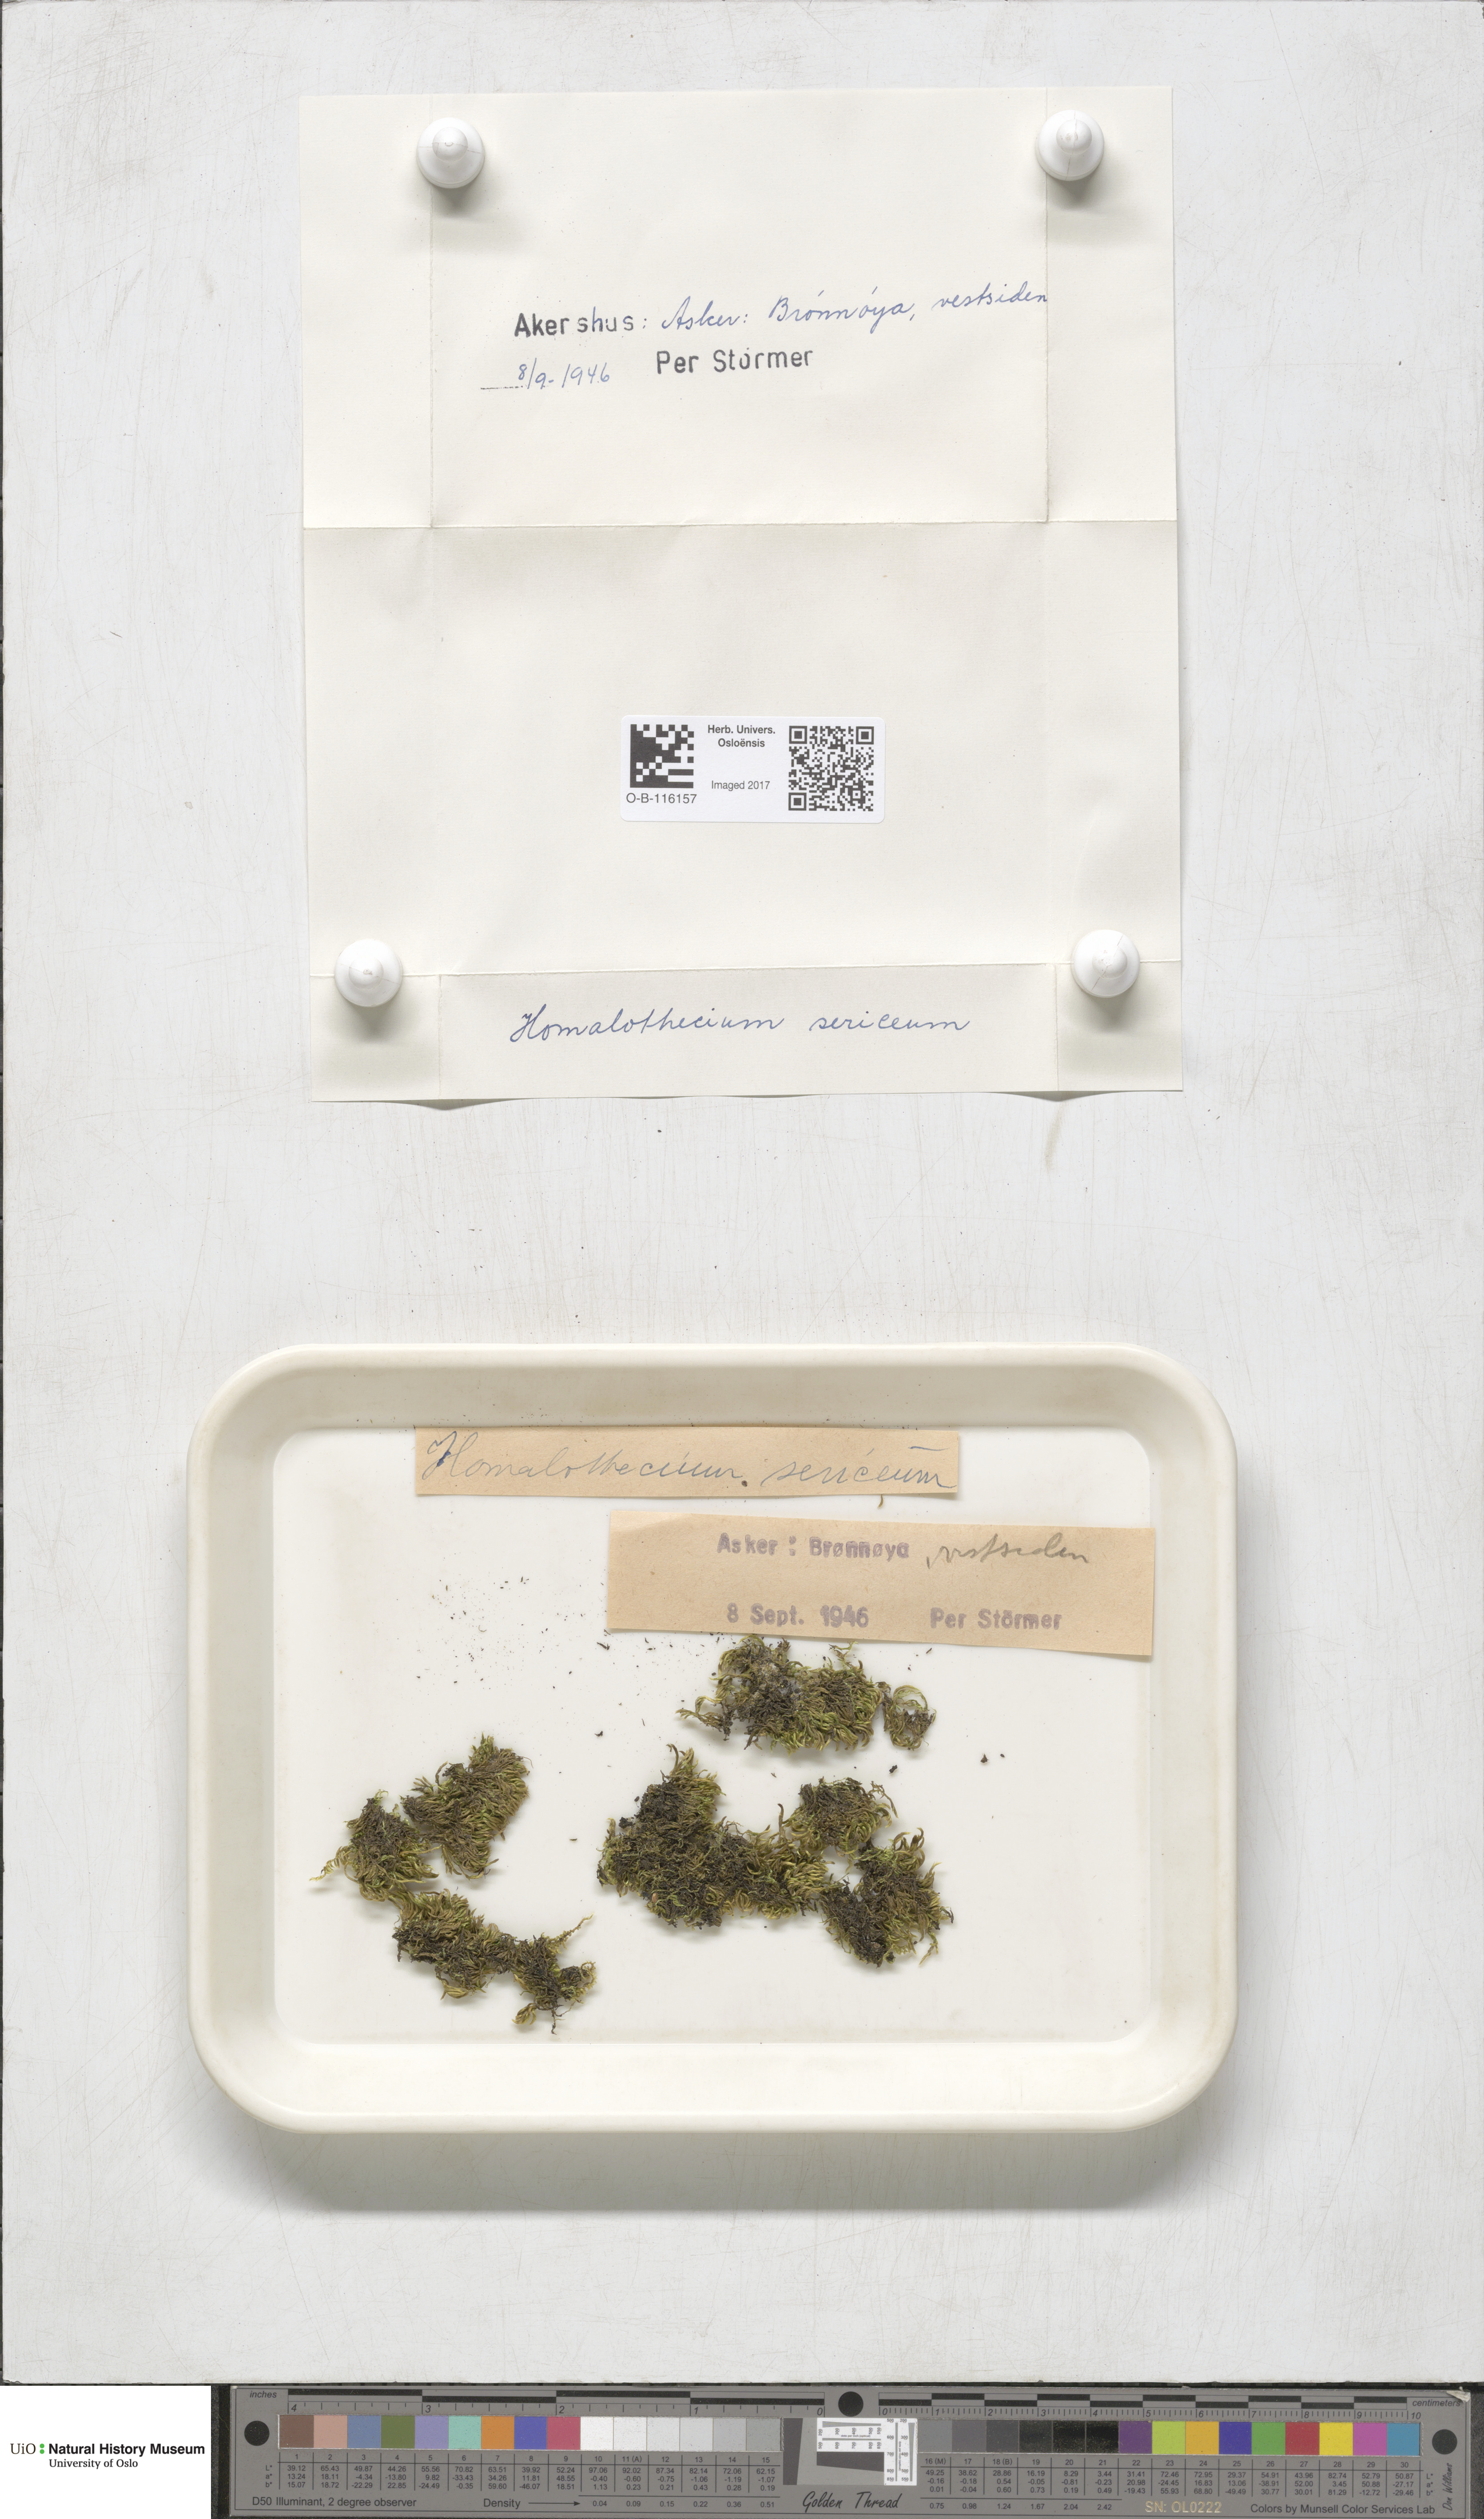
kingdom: Plantae
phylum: Bryophyta
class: Bryopsida
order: Hypnales
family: Brachytheciaceae
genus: Homalothecium
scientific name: Homalothecium sericeum
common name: Silky wall feather-moss
